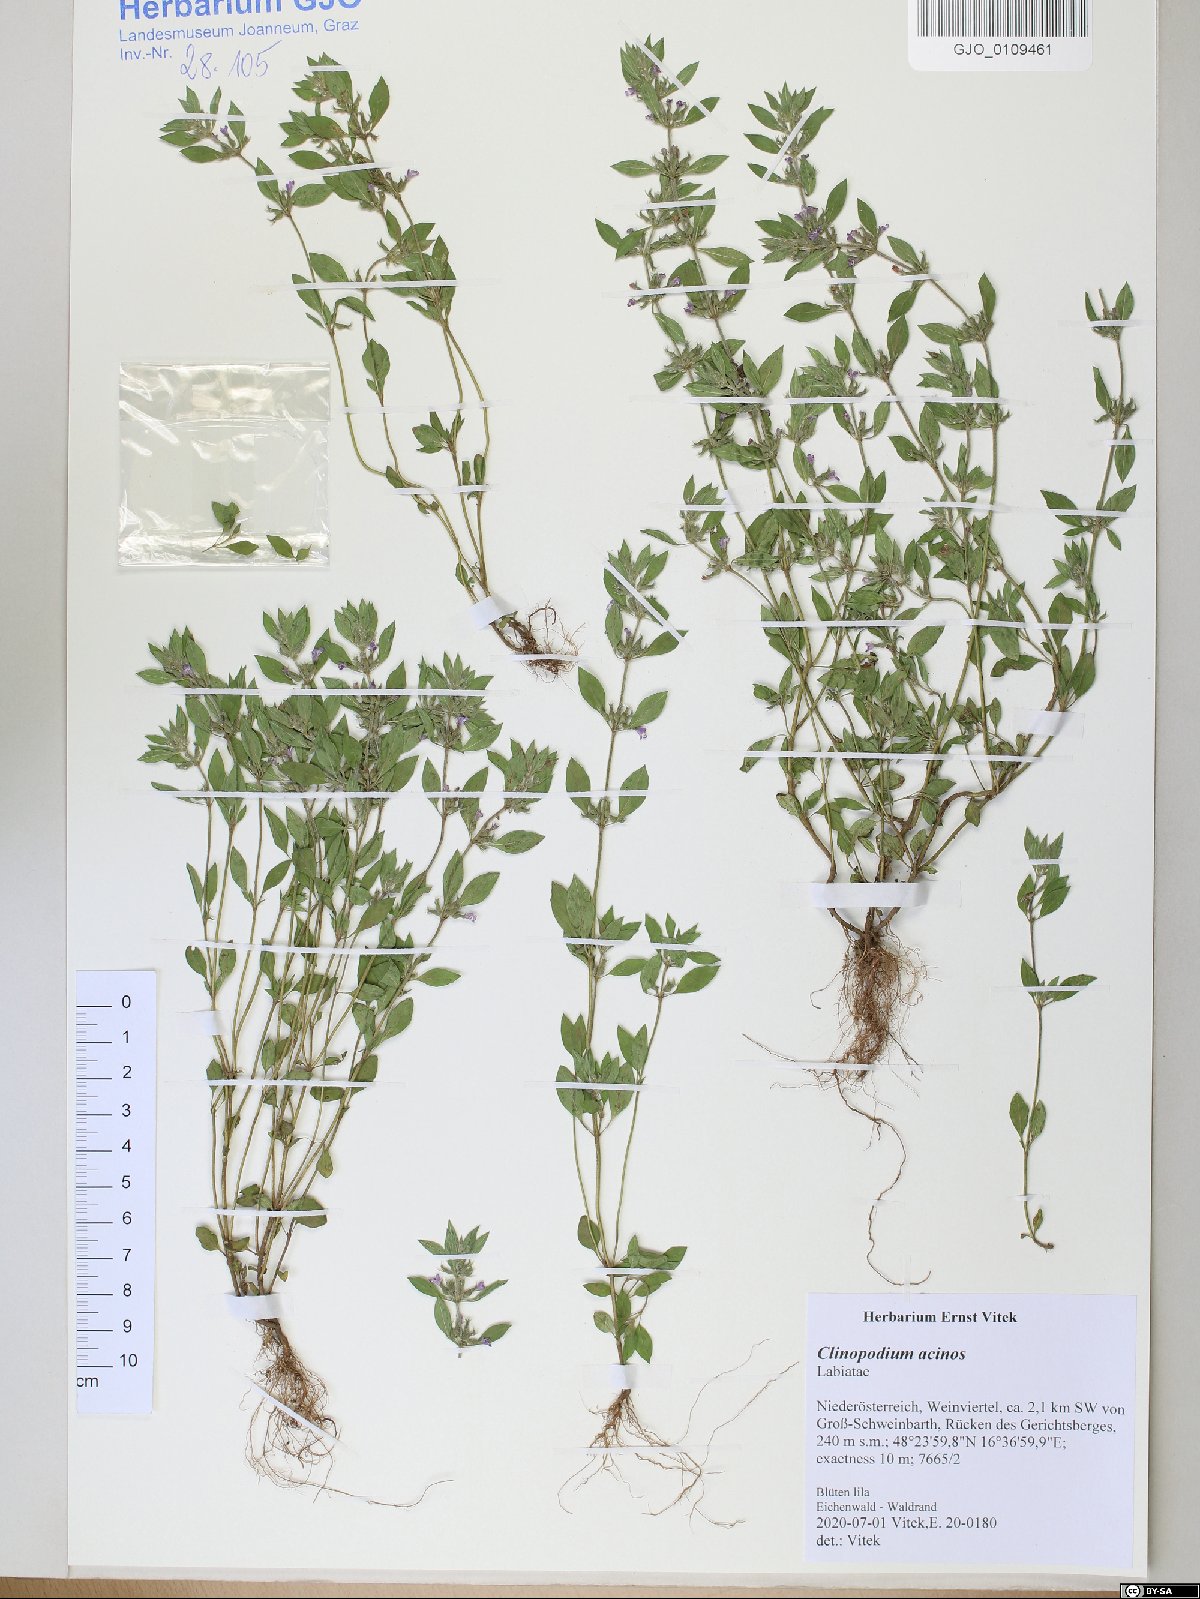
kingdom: Plantae
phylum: Tracheophyta
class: Magnoliopsida
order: Lamiales
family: Lamiaceae
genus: Clinopodium
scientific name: Clinopodium acinos
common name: Basil thyme
